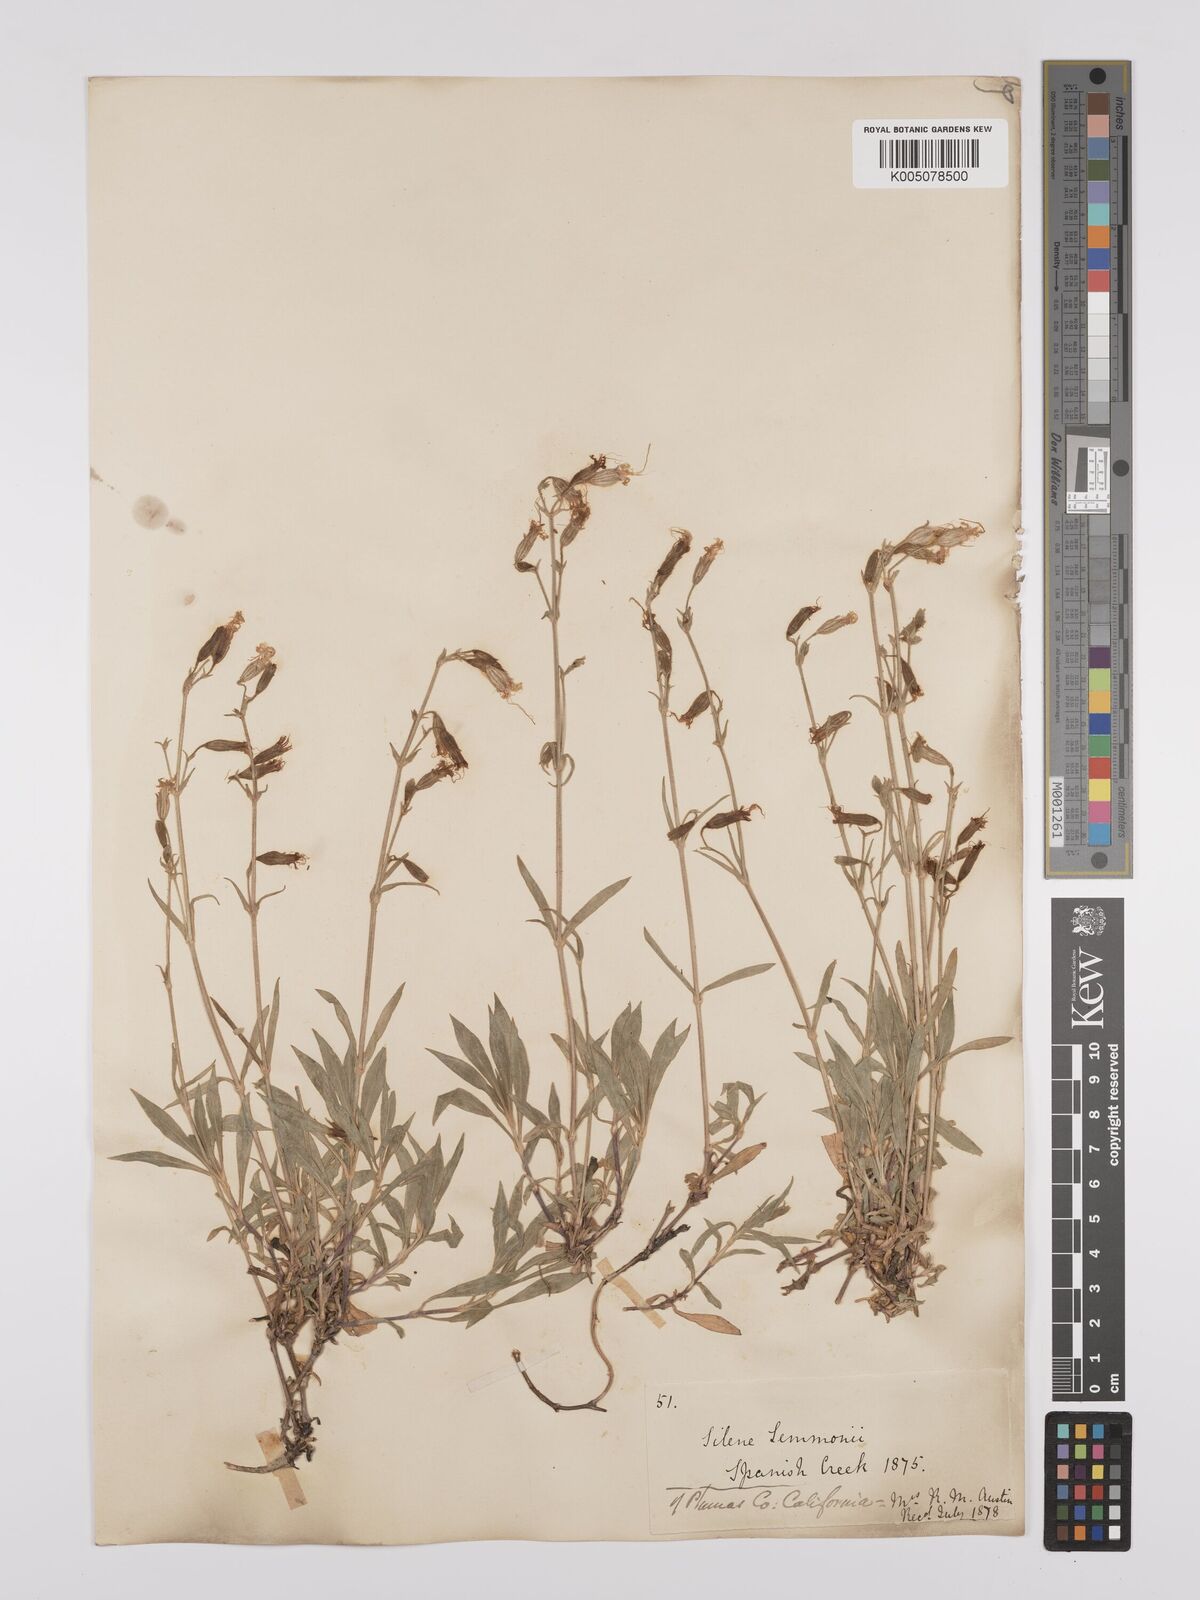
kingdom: Plantae
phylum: Tracheophyta
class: Magnoliopsida
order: Caryophyllales
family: Caryophyllaceae
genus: Silene
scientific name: Silene lemmonii
